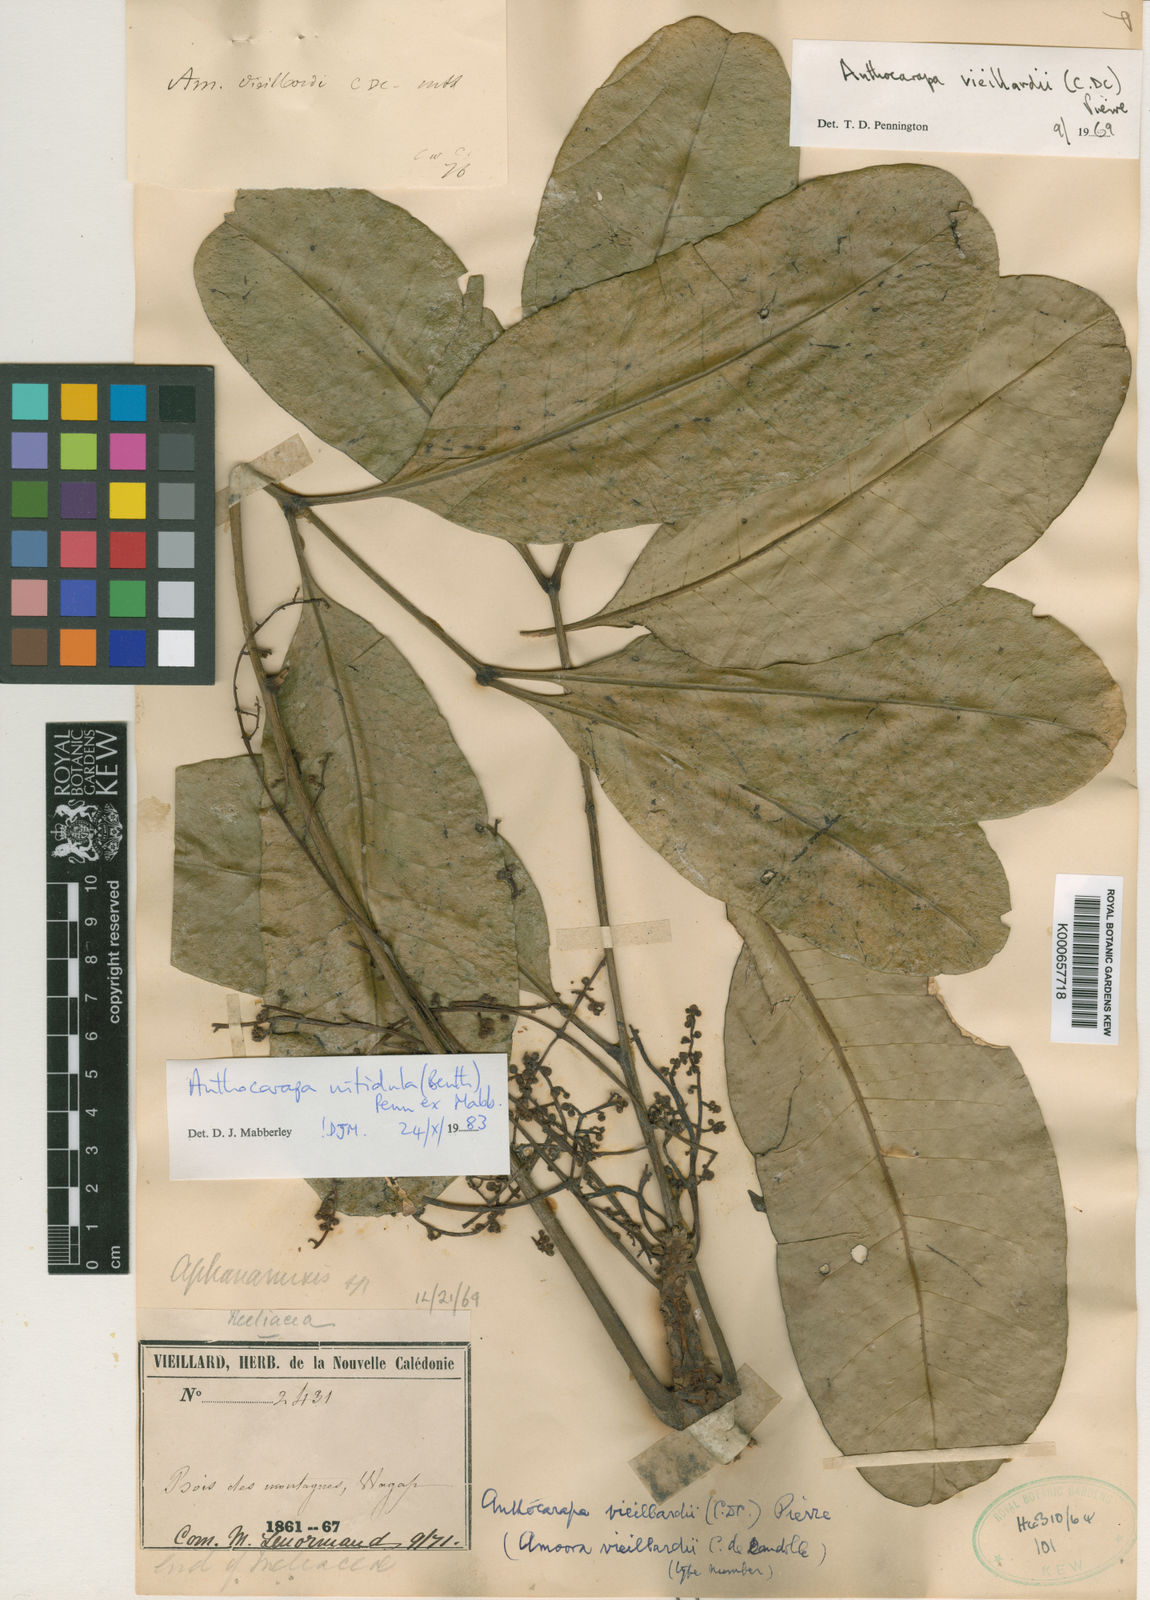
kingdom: Plantae
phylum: Tracheophyta
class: Magnoliopsida
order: Sapindales
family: Meliaceae
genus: Anthocarapa
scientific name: Anthocarapa nitidula
